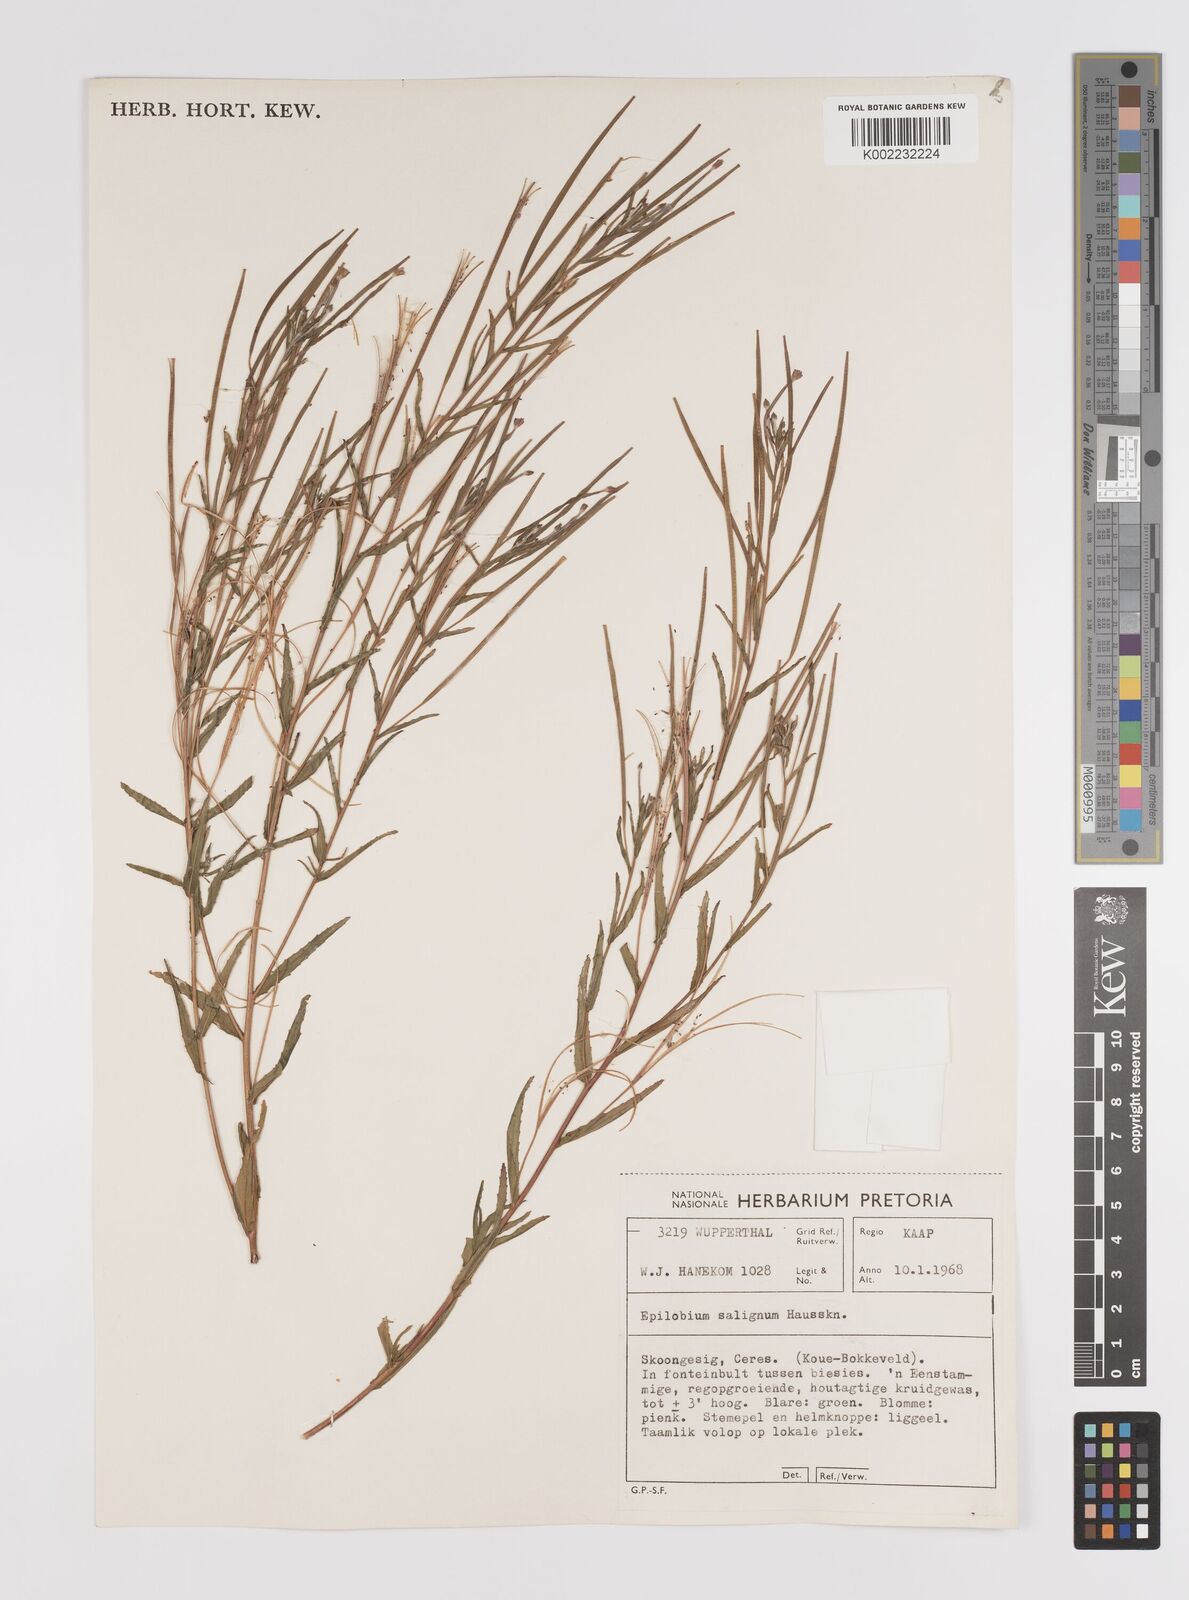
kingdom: Plantae
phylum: Tracheophyta
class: Magnoliopsida
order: Myrtales
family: Onagraceae
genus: Epilobium
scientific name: Epilobium salignum
